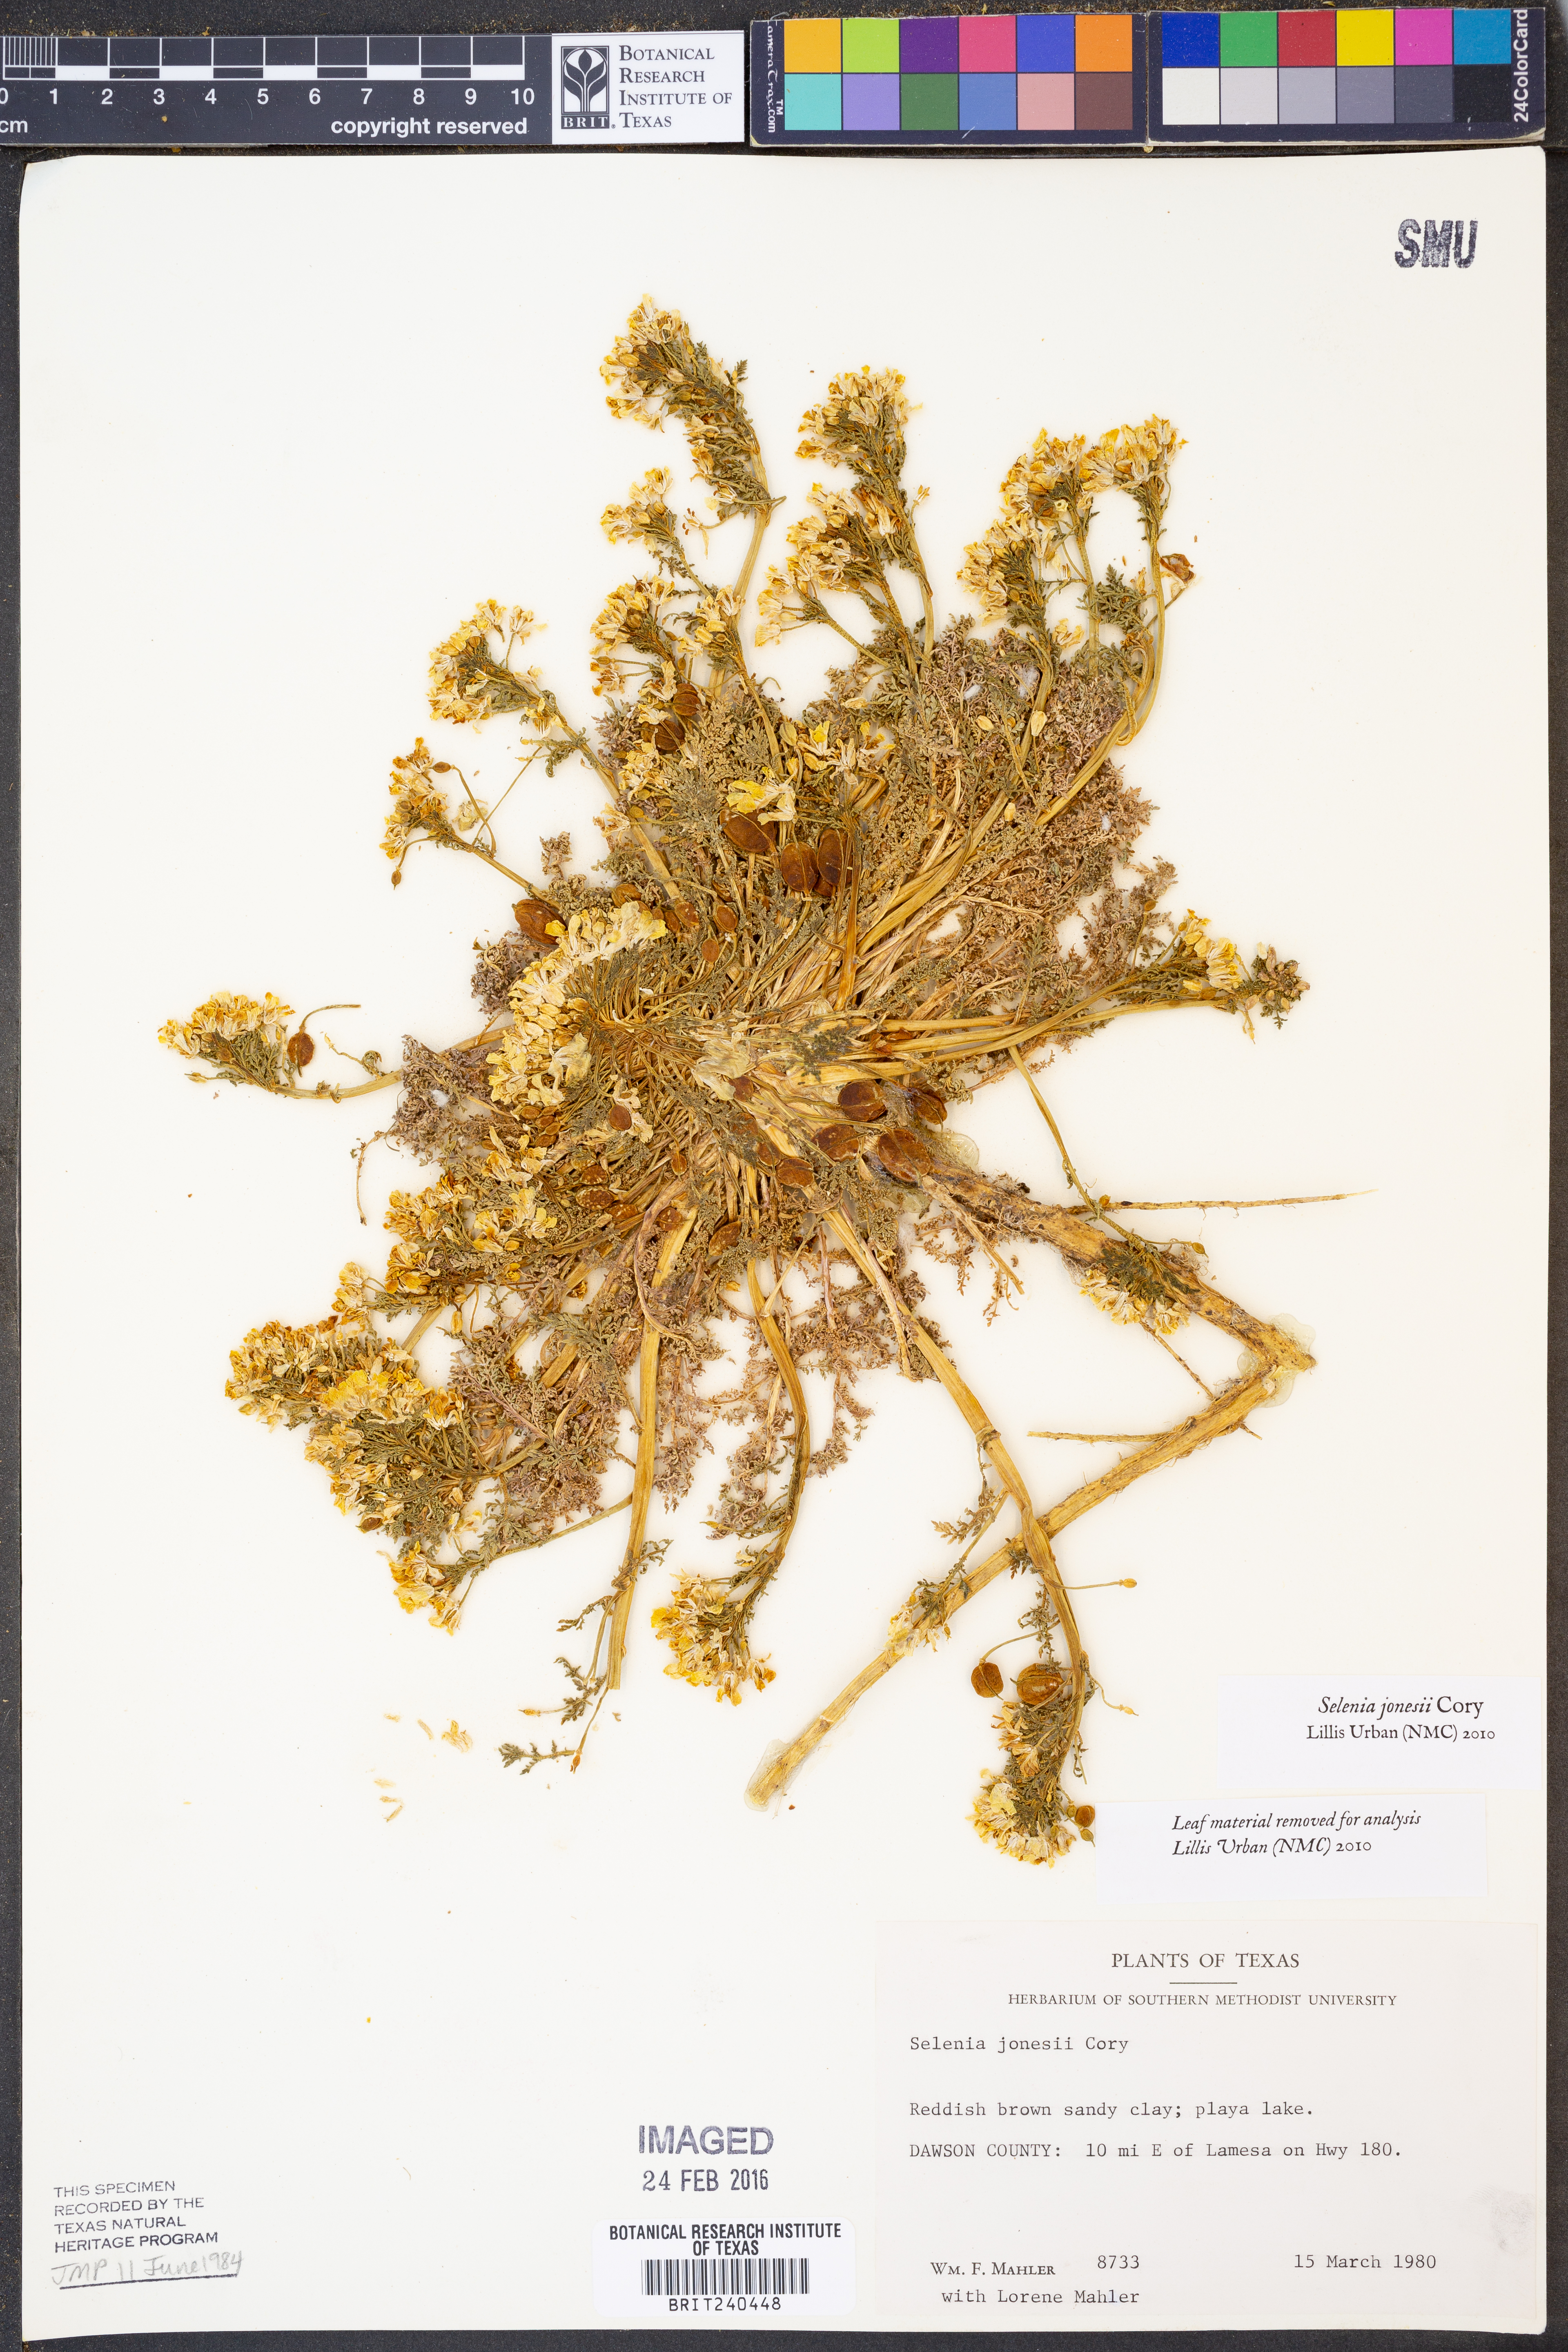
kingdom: Plantae
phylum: Tracheophyta
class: Magnoliopsida
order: Brassicales
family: Brassicaceae
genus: Selenia
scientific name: Selenia jonesii
